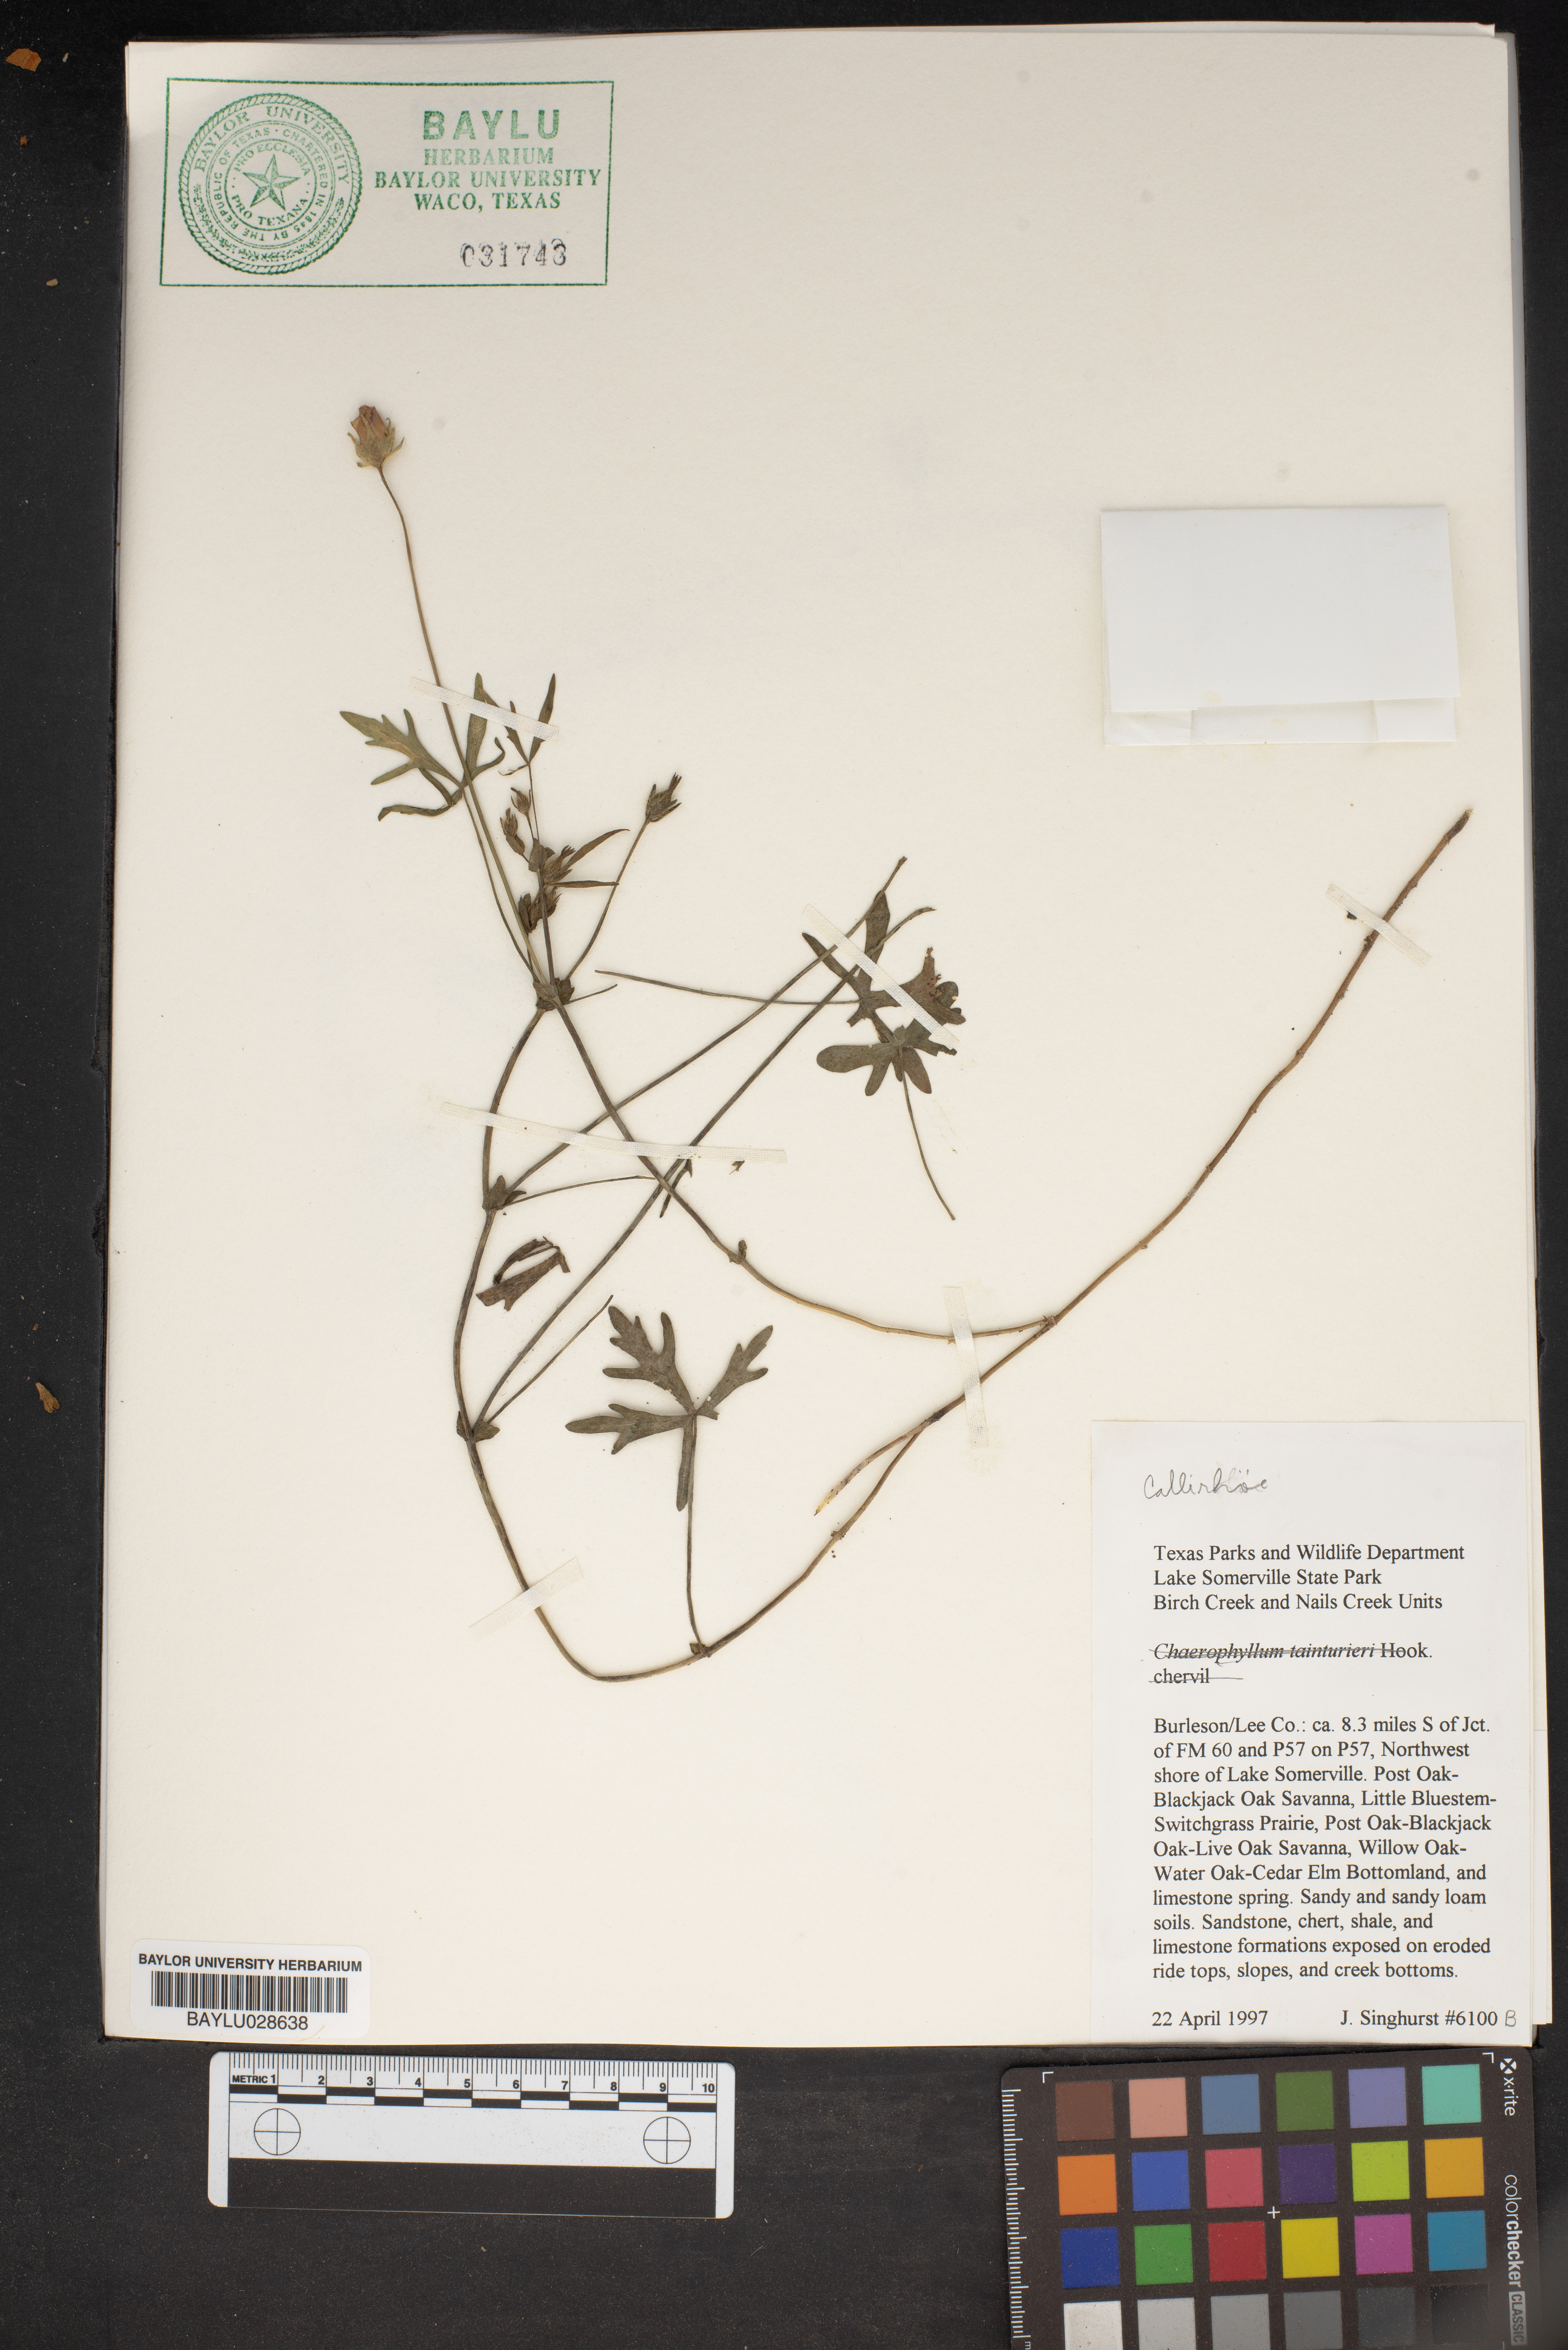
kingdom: Plantae
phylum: Tracheophyta
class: Magnoliopsida
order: Malvales
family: Malvaceae
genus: Callirhoe
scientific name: Callirhoe
